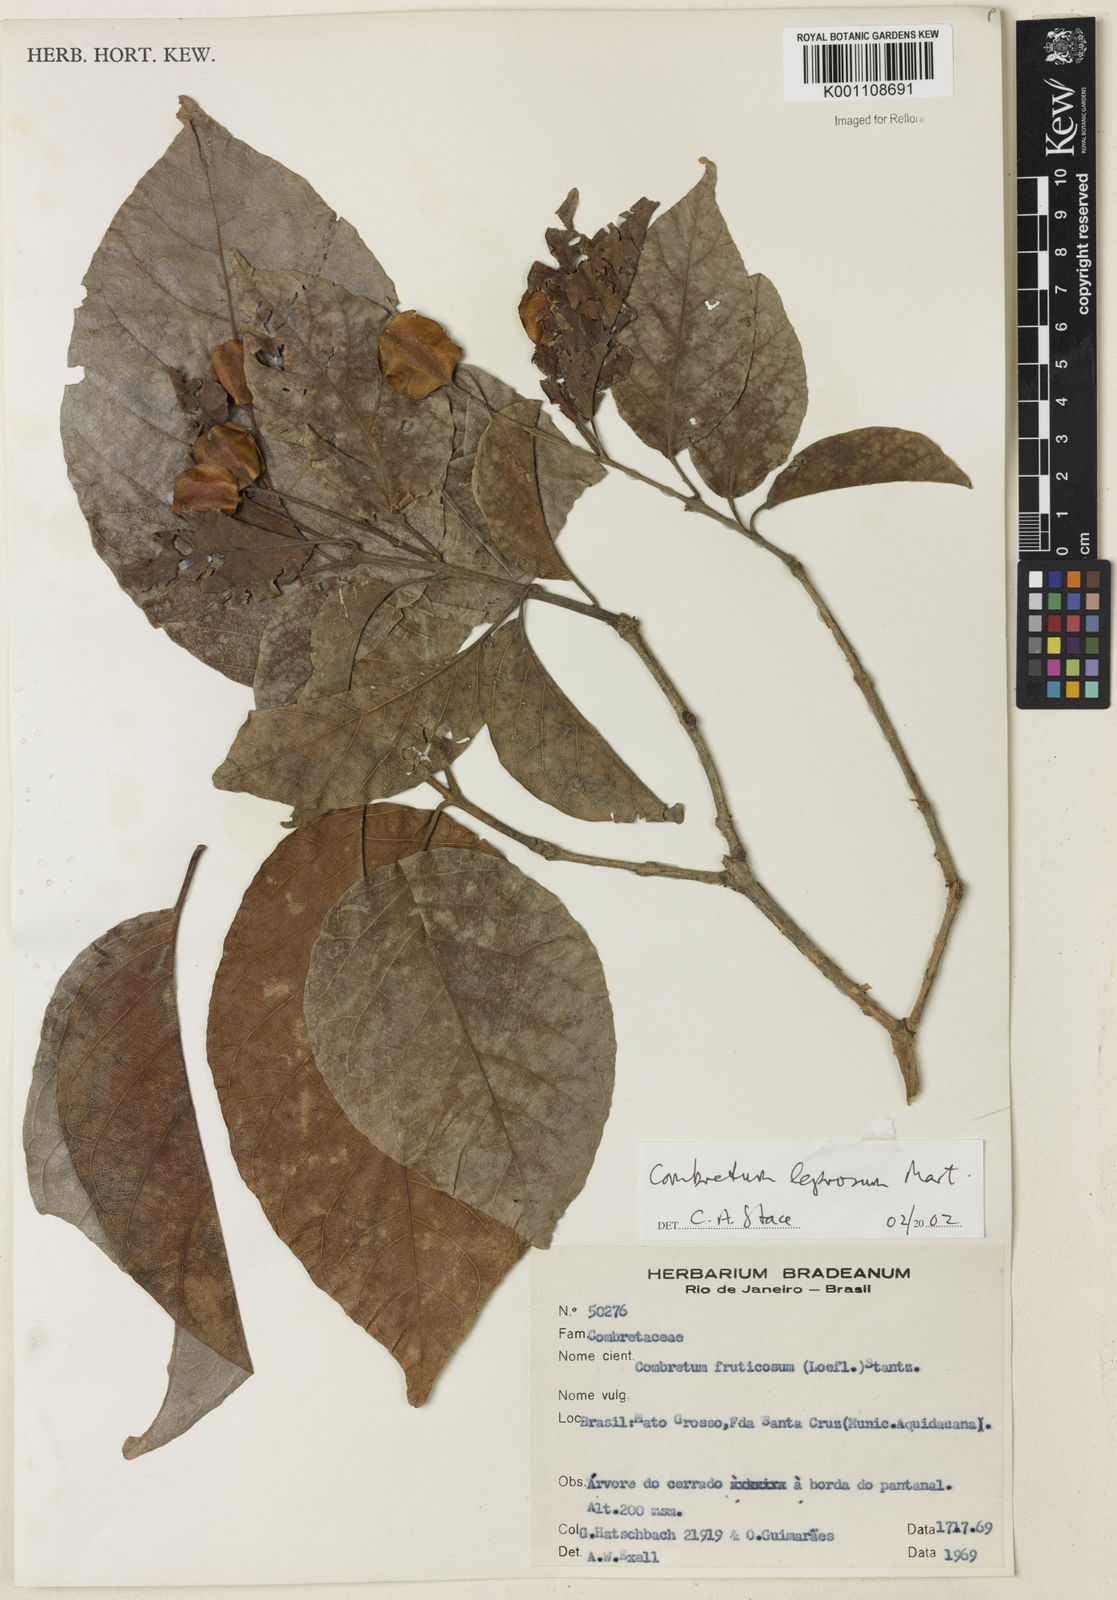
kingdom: Plantae
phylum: Tracheophyta
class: Magnoliopsida
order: Myrtales
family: Combretaceae
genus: Combretum
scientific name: Combretum leprosum
